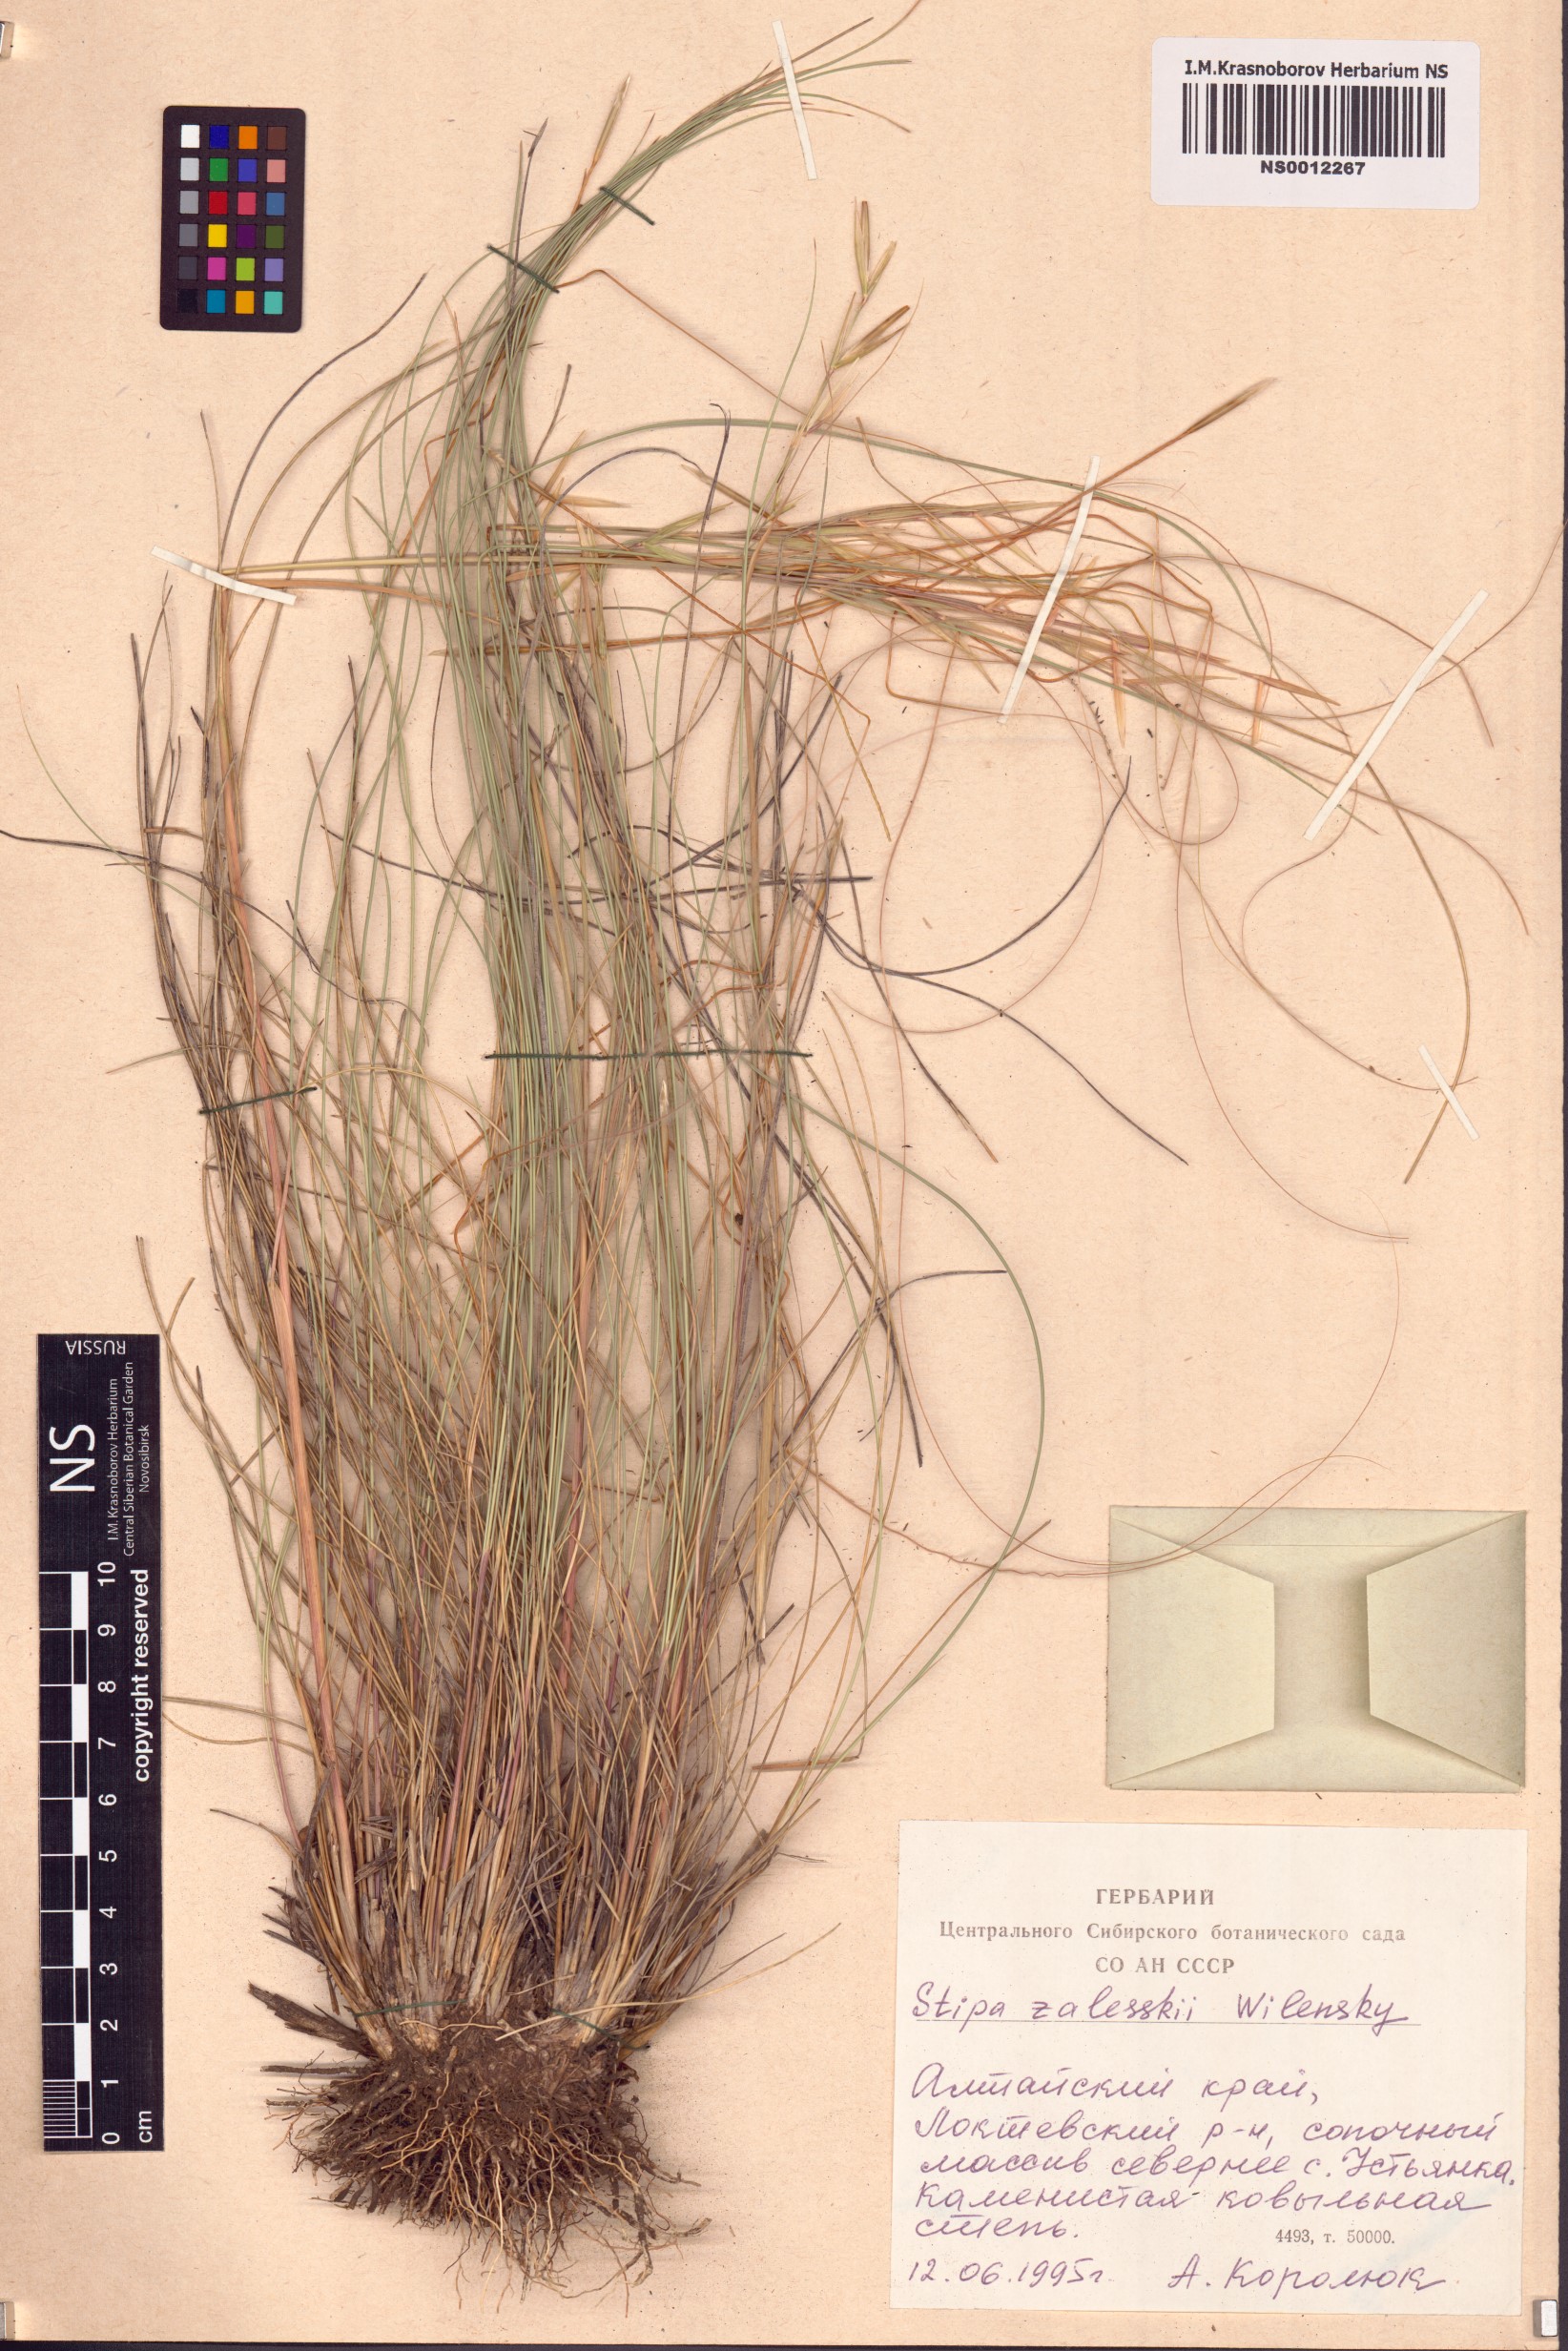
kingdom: Plantae
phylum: Tracheophyta
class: Liliopsida
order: Poales
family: Poaceae
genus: Stipa
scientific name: Stipa zalesskii
